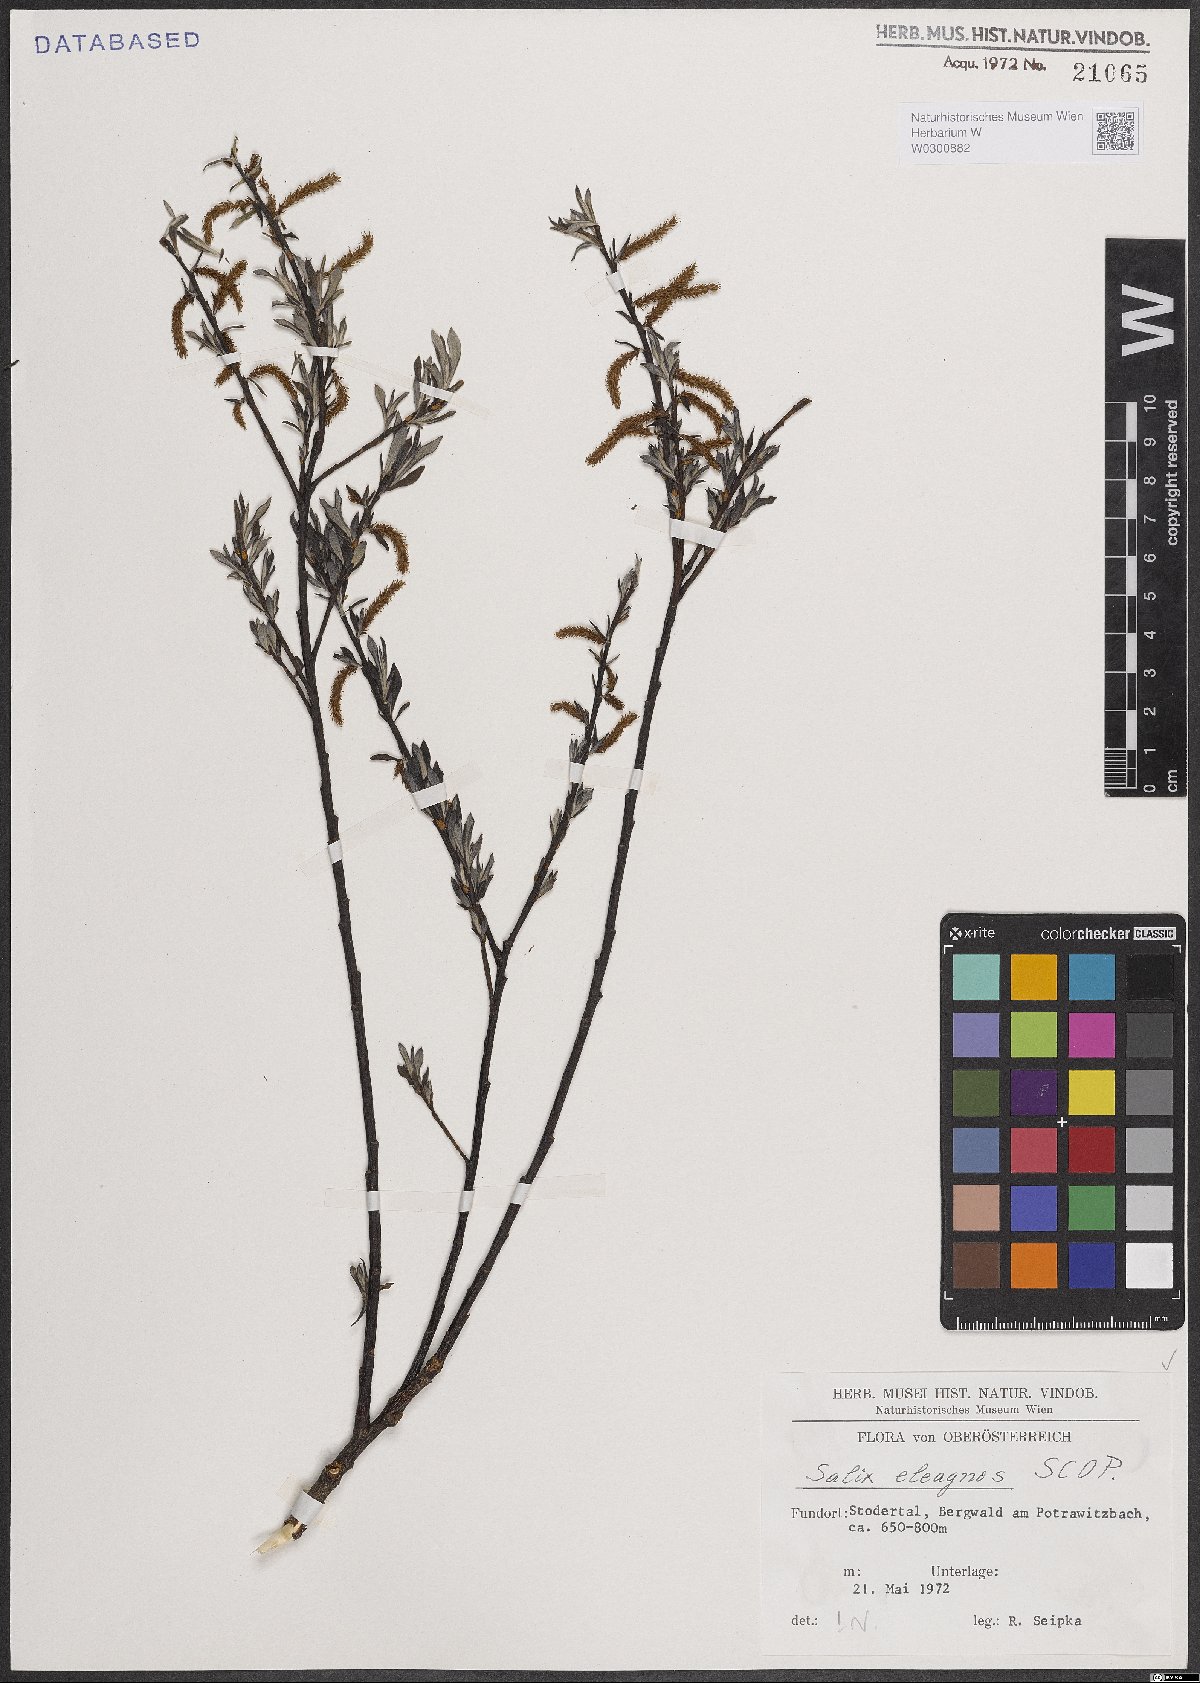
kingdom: Plantae
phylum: Tracheophyta
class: Magnoliopsida
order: Malpighiales
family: Salicaceae
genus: Salix
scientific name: Salix eleagnos
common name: Elaeagnus willow
